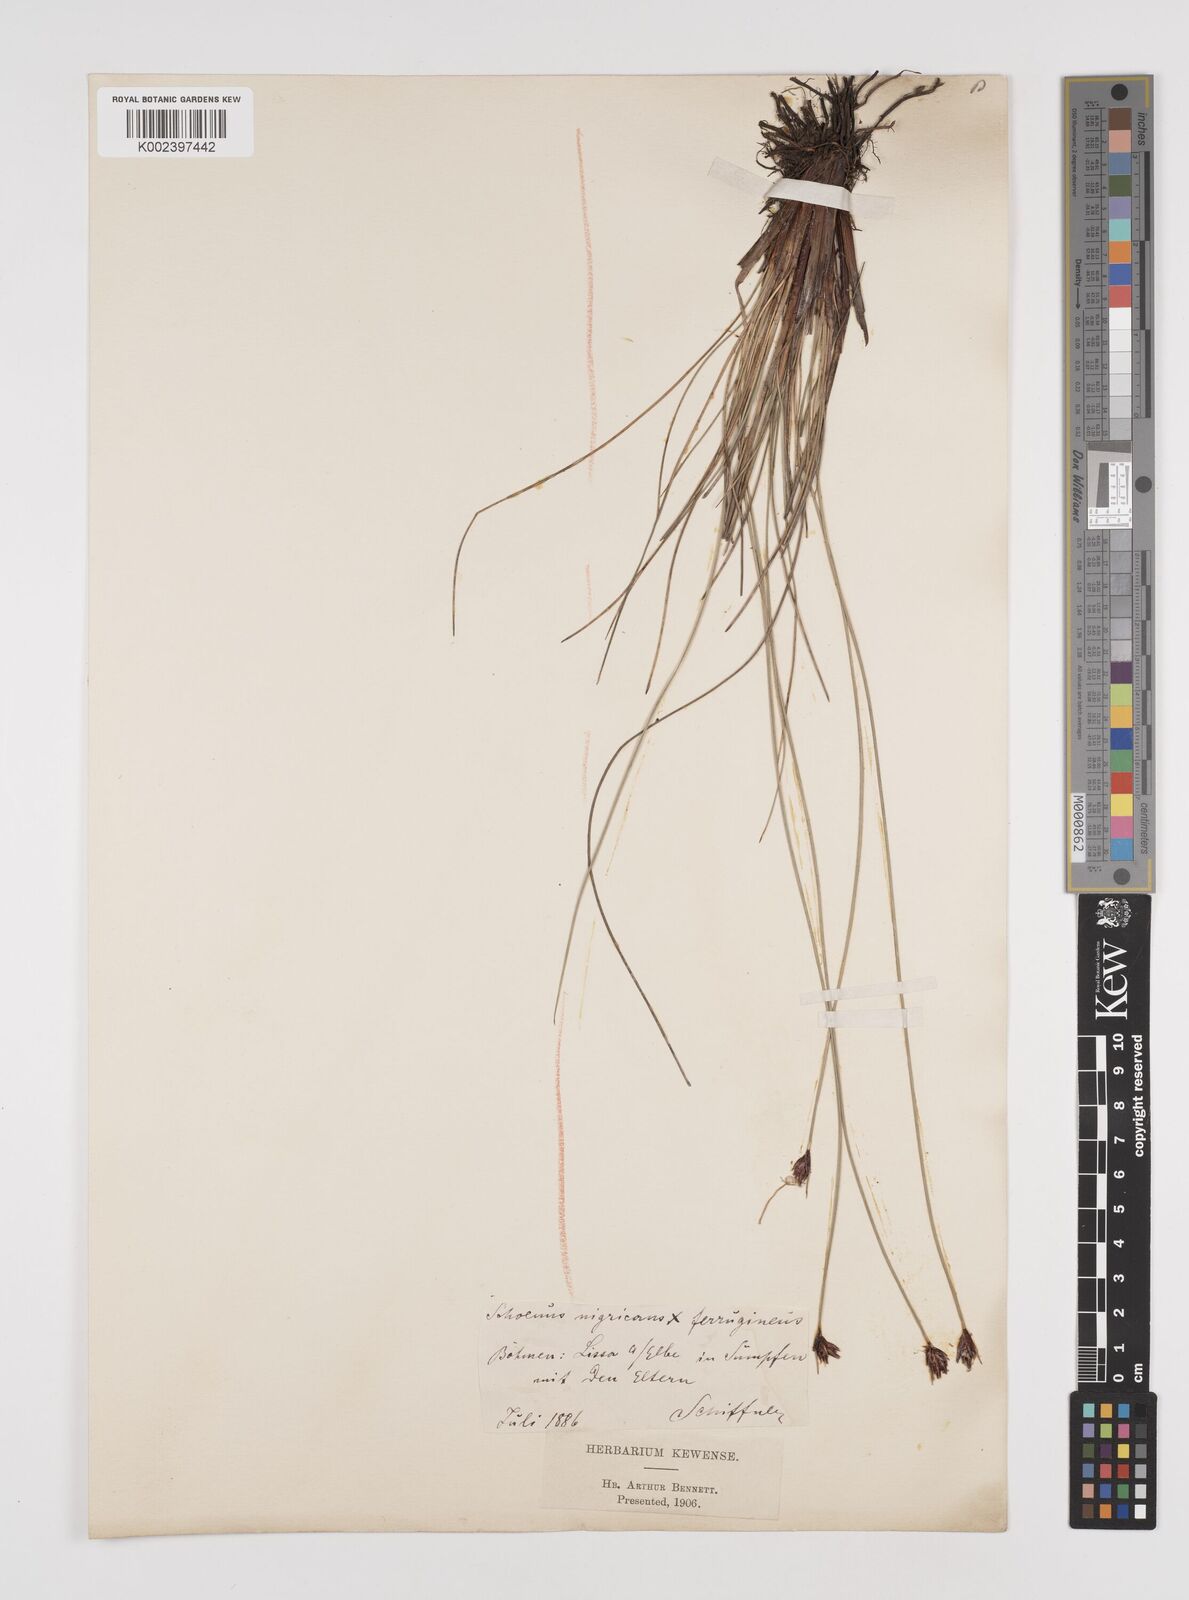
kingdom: Plantae
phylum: Tracheophyta
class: Liliopsida
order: Poales
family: Cyperaceae
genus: Schoenus
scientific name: Schoenus ferrugineus
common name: Brown bog-rush
